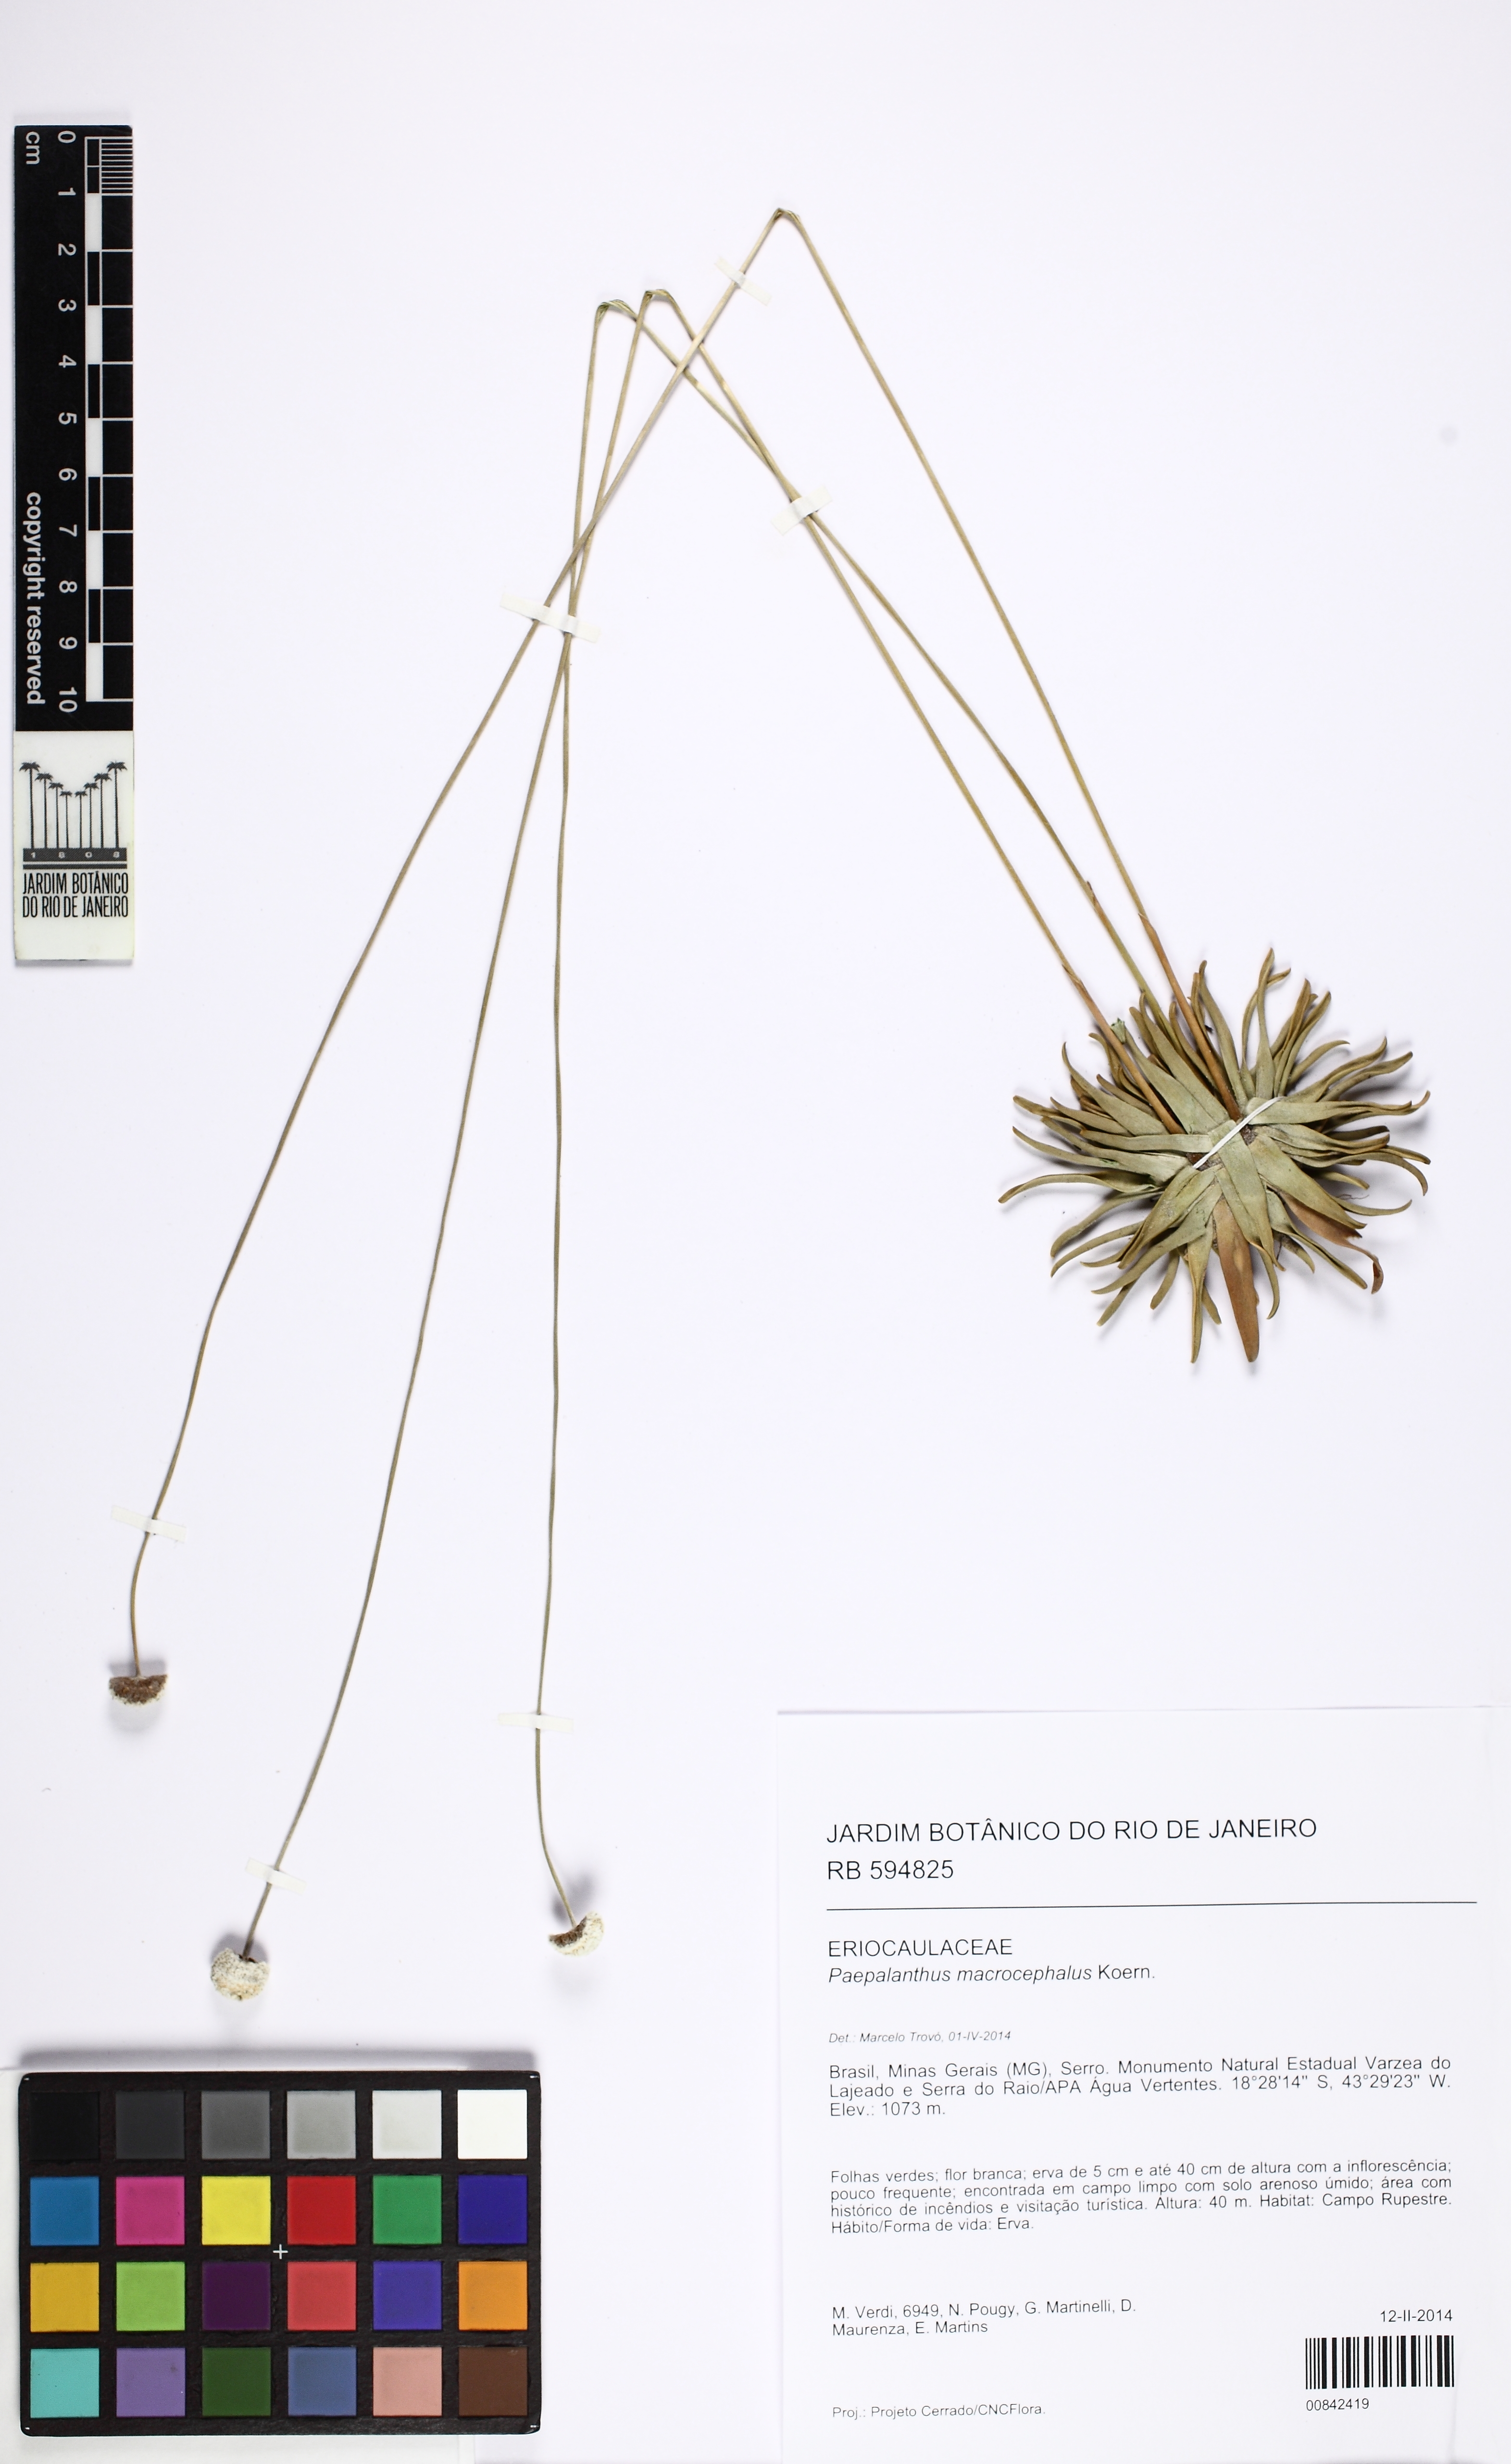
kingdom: Plantae
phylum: Tracheophyta
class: Liliopsida
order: Poales
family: Eriocaulaceae
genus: Paepalanthus
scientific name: Paepalanthus macrocephalus
